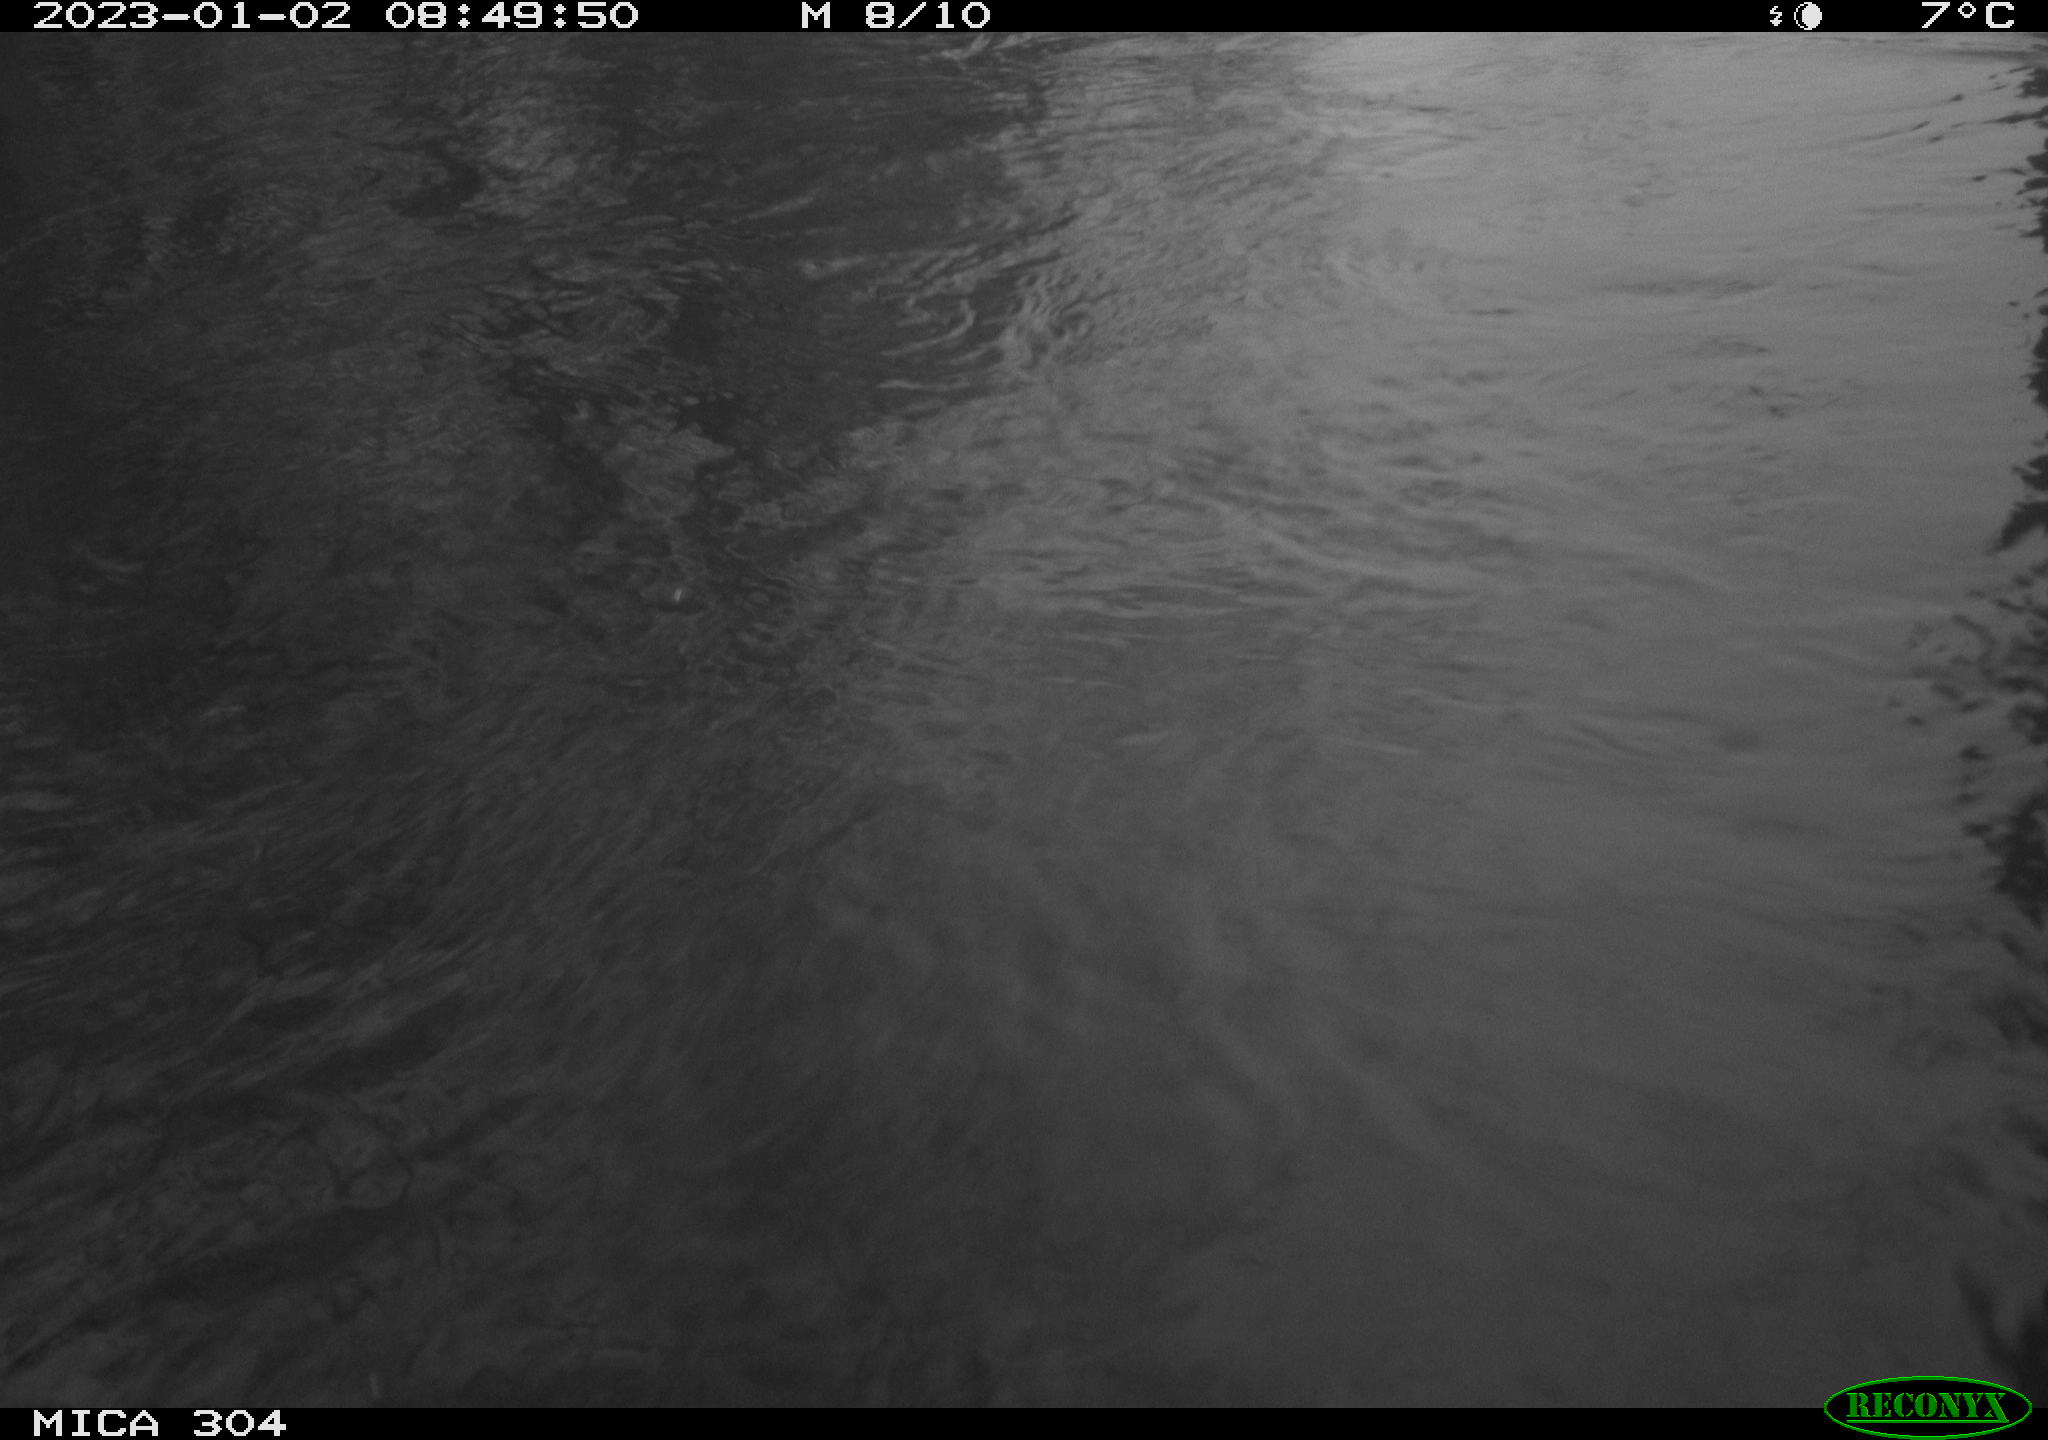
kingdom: Animalia
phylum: Chordata
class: Aves
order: Anseriformes
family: Anatidae
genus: Anas
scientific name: Anas
